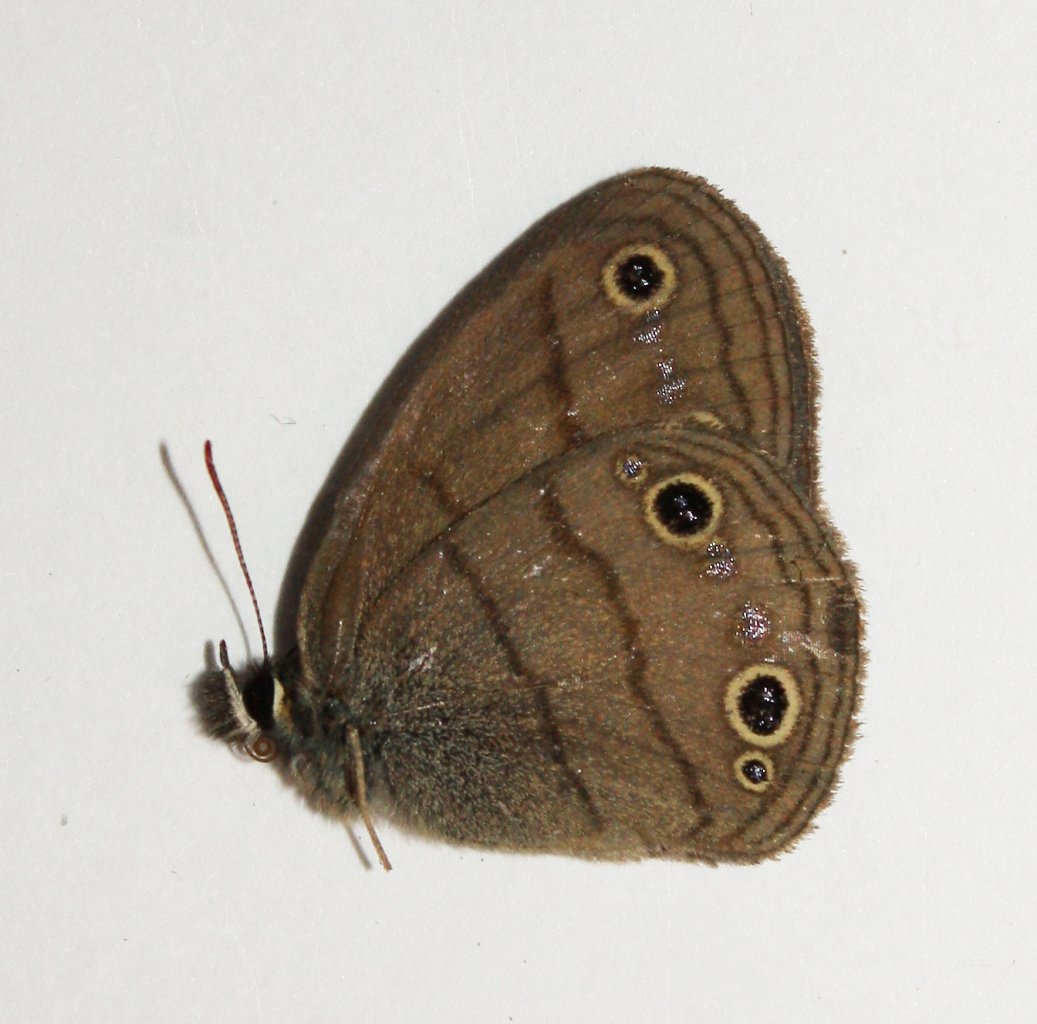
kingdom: Animalia
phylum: Arthropoda
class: Insecta
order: Lepidoptera
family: Nymphalidae
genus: Euptychia
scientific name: Euptychia cymela
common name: Little Wood Satyr
